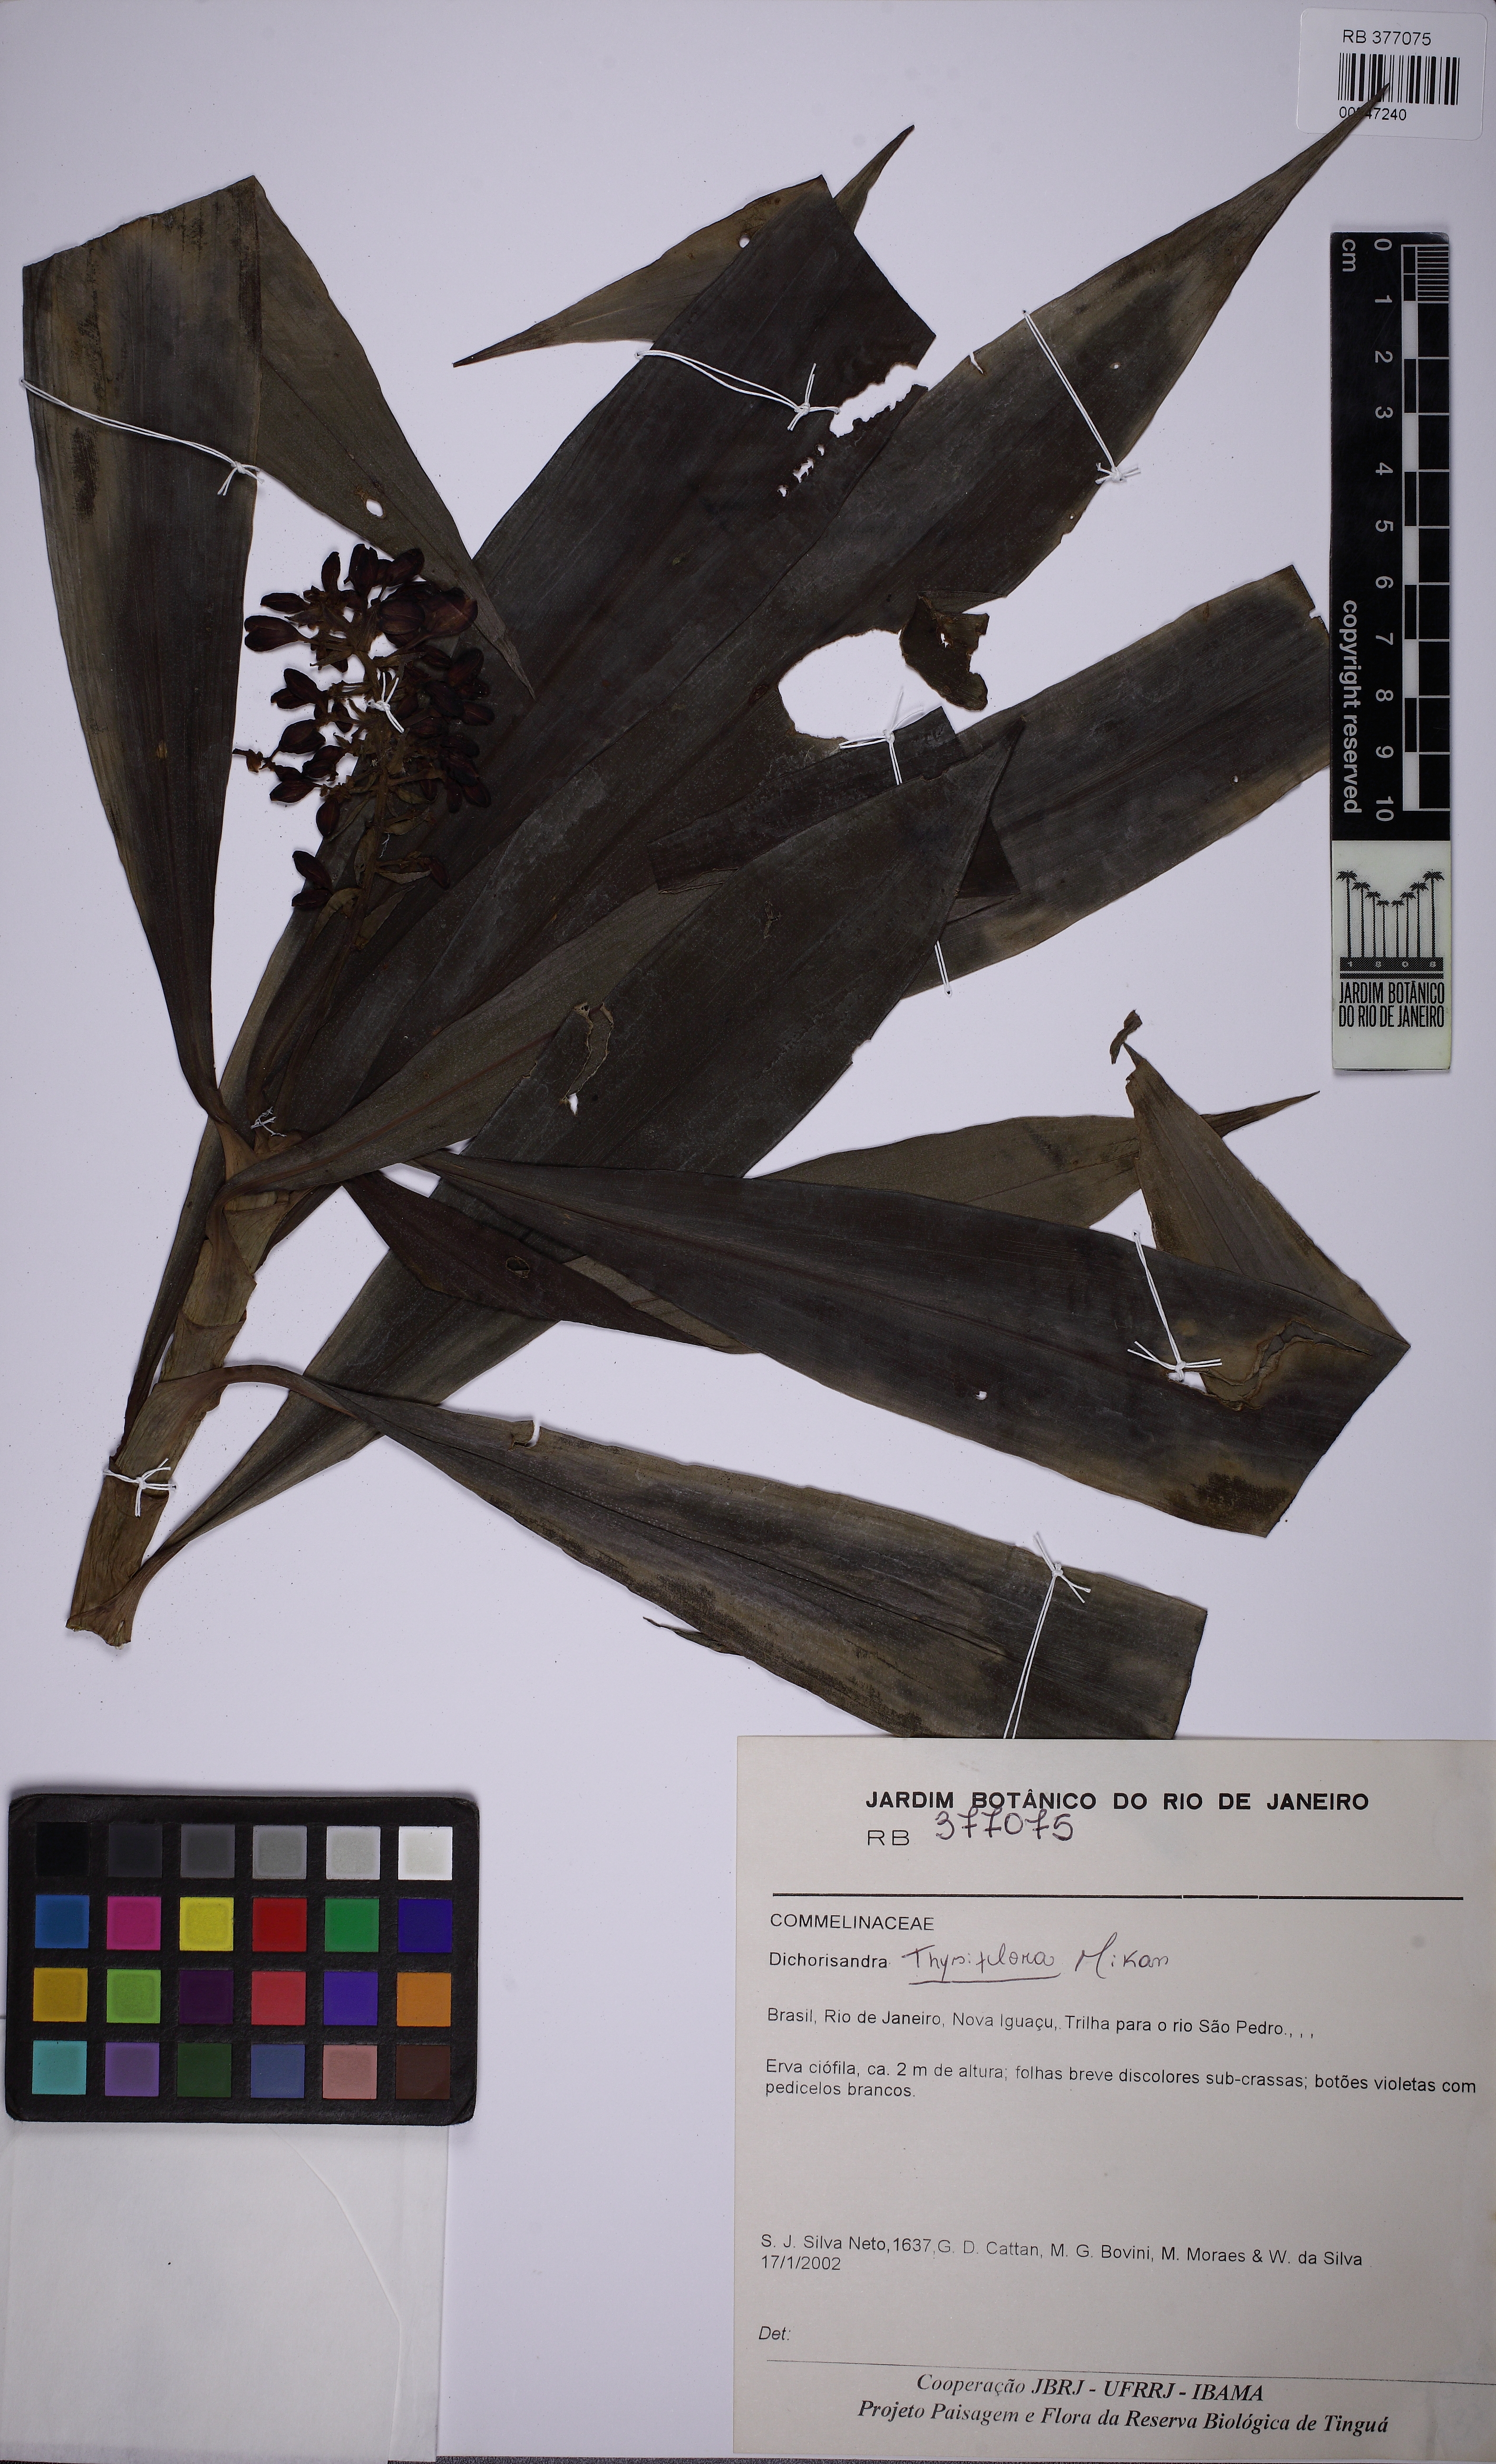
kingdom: Plantae
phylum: Tracheophyta
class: Liliopsida
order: Commelinales
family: Commelinaceae
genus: Dichorisandra
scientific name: Dichorisandra thyrsiflora
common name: Blue-ginger
